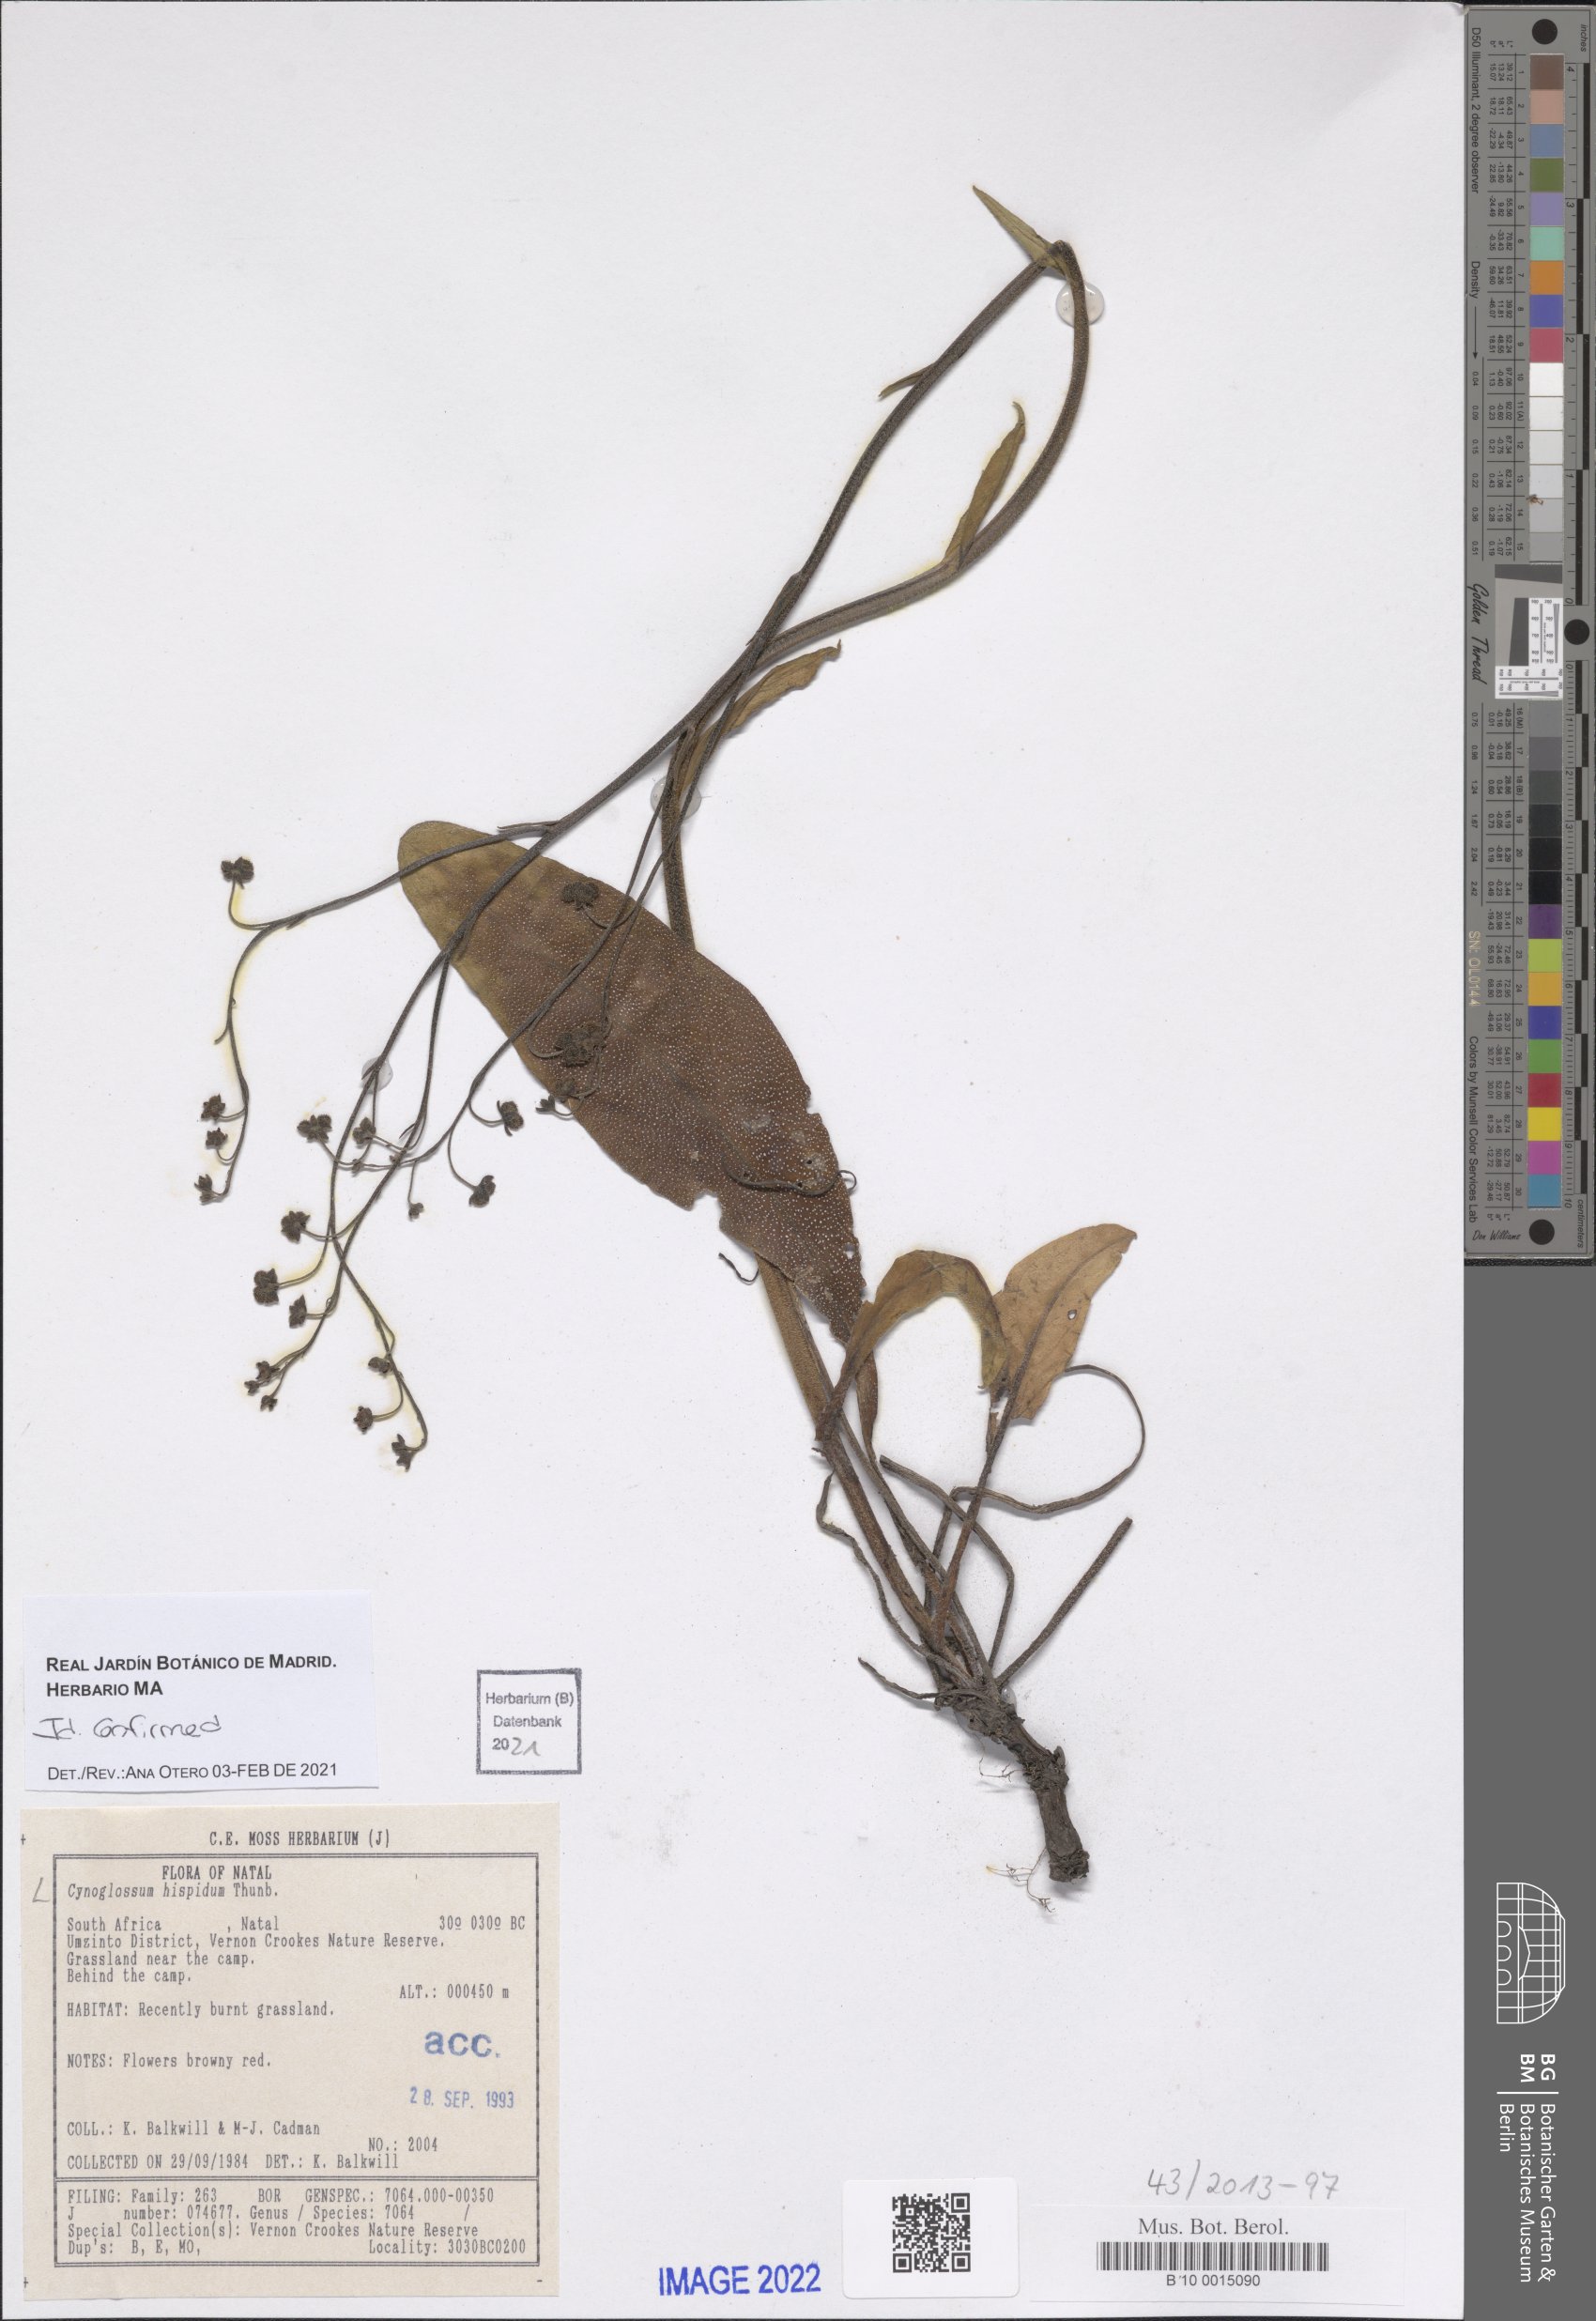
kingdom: Plantae
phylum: Tracheophyta
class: Magnoliopsida
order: Boraginales
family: Boraginaceae
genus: Cynoglossum
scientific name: Cynoglossum hispidum
